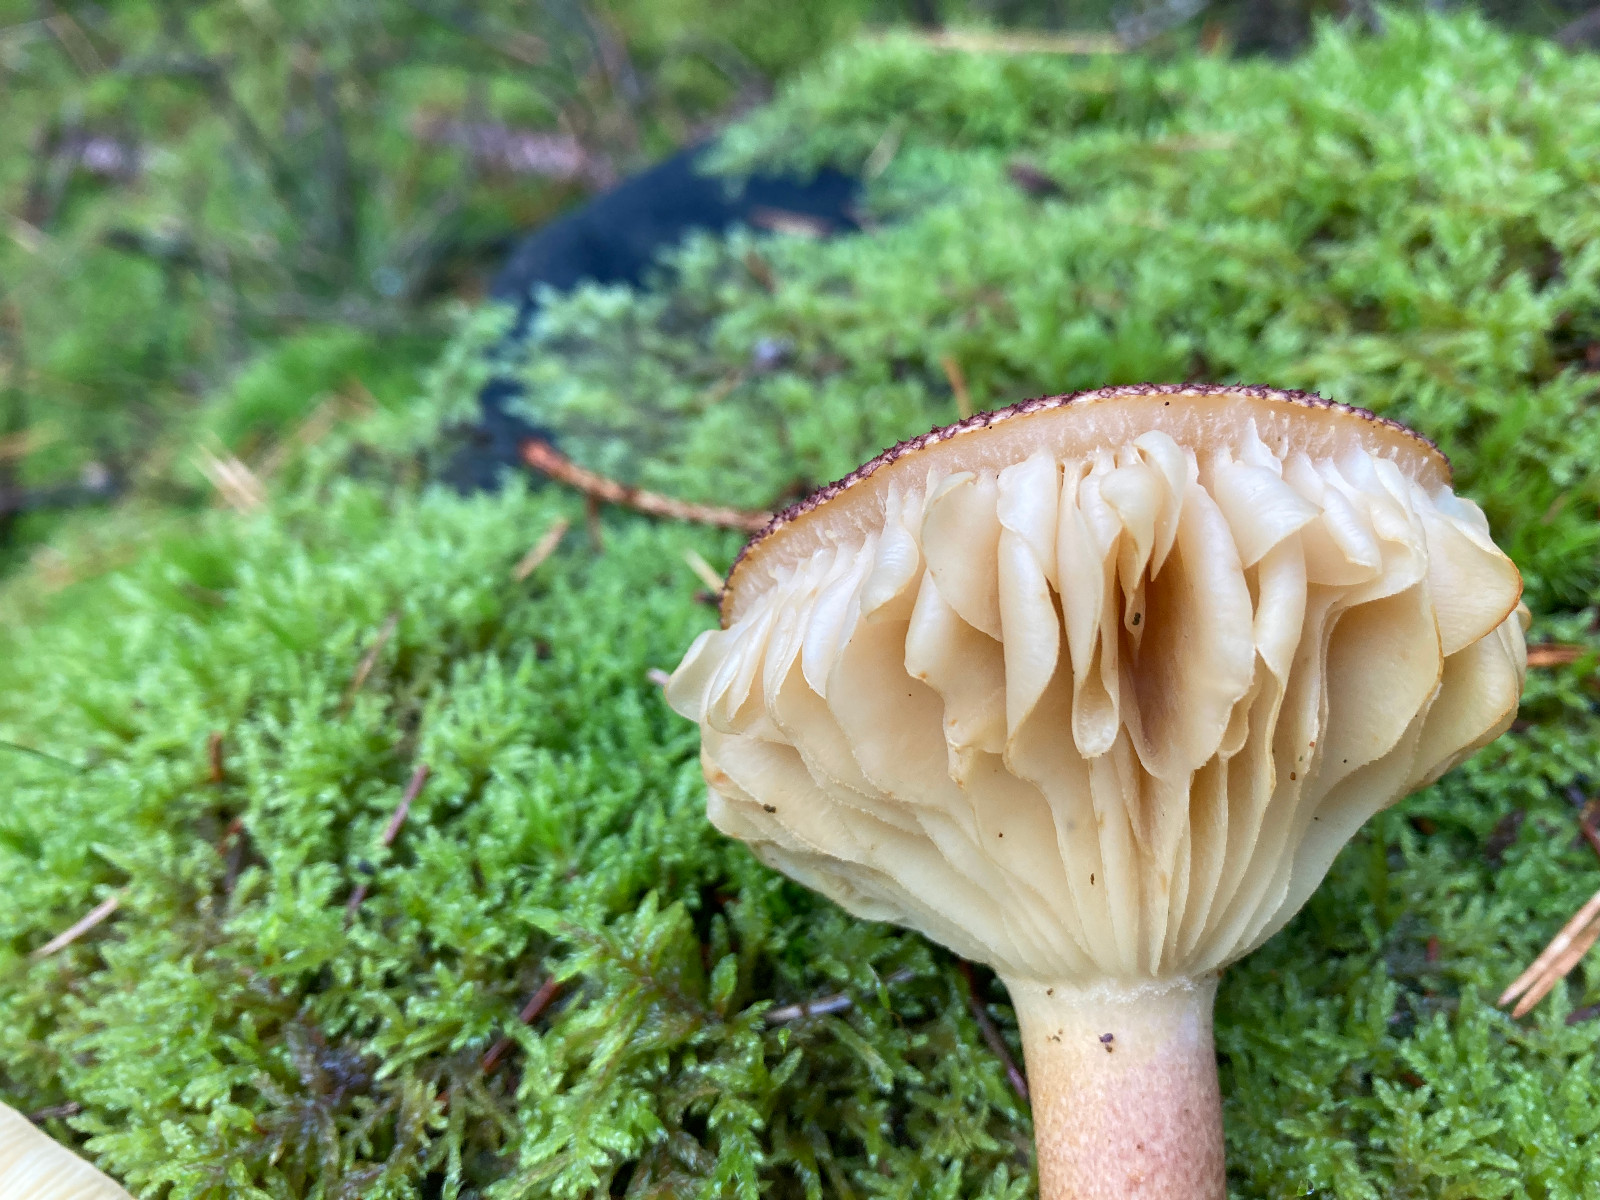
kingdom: Fungi
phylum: Basidiomycota
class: Agaricomycetes
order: Agaricales
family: Tricholomataceae
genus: Tricholomopsis
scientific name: Tricholomopsis rutilans
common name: purpur-væbnerhat
